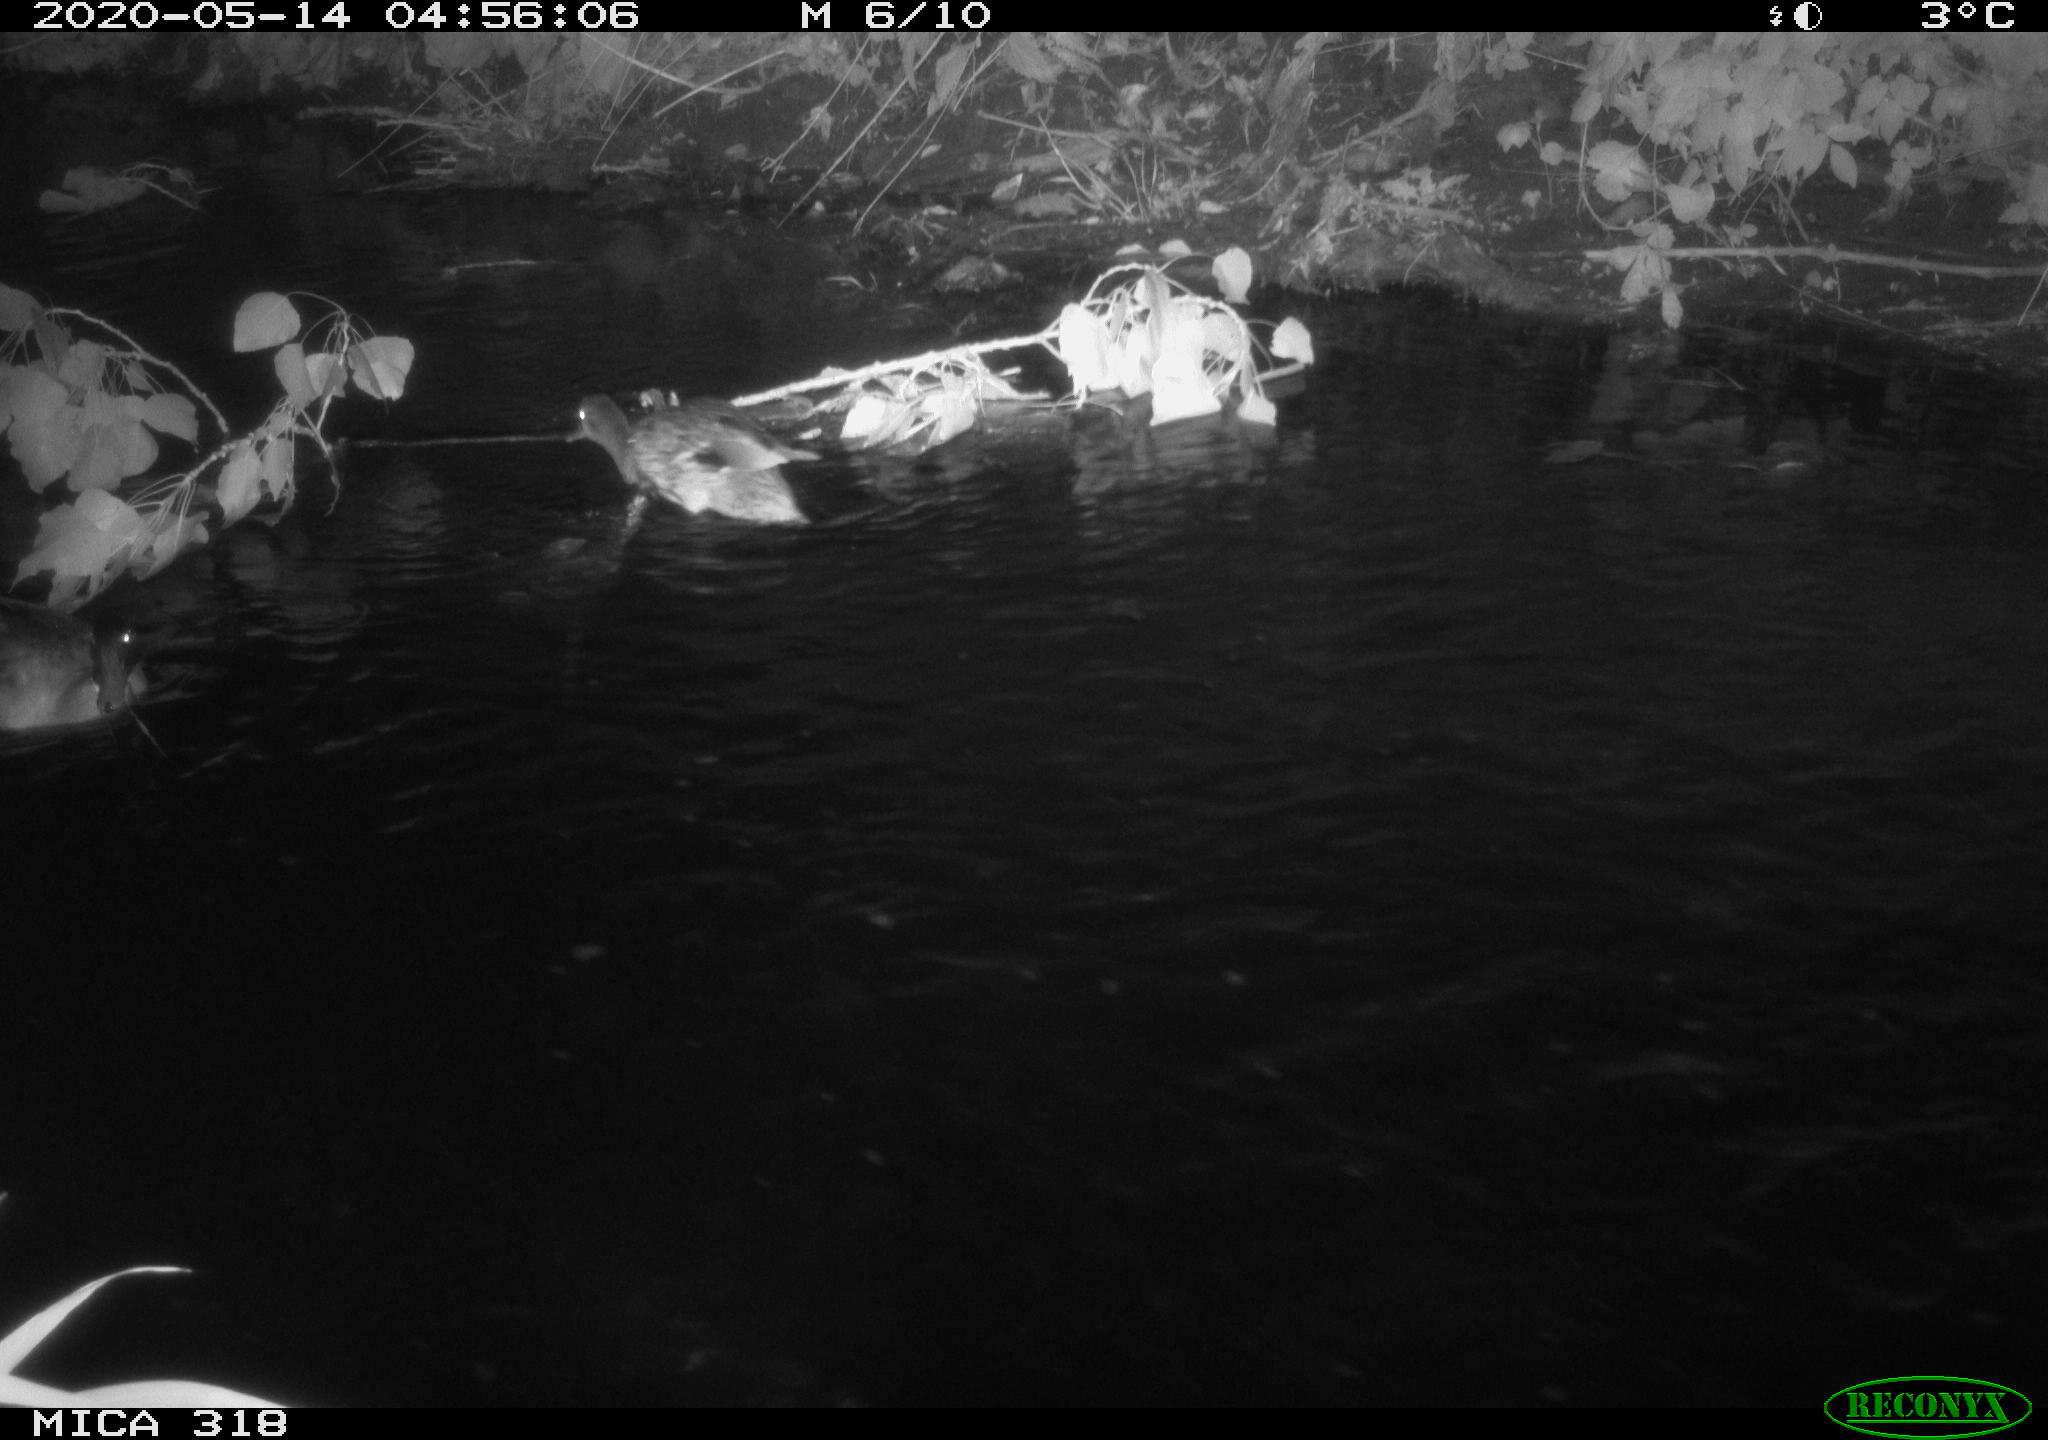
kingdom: Animalia
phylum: Chordata
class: Aves
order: Anseriformes
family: Anatidae
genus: Anas
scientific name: Anas platyrhynchos
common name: Mallard
